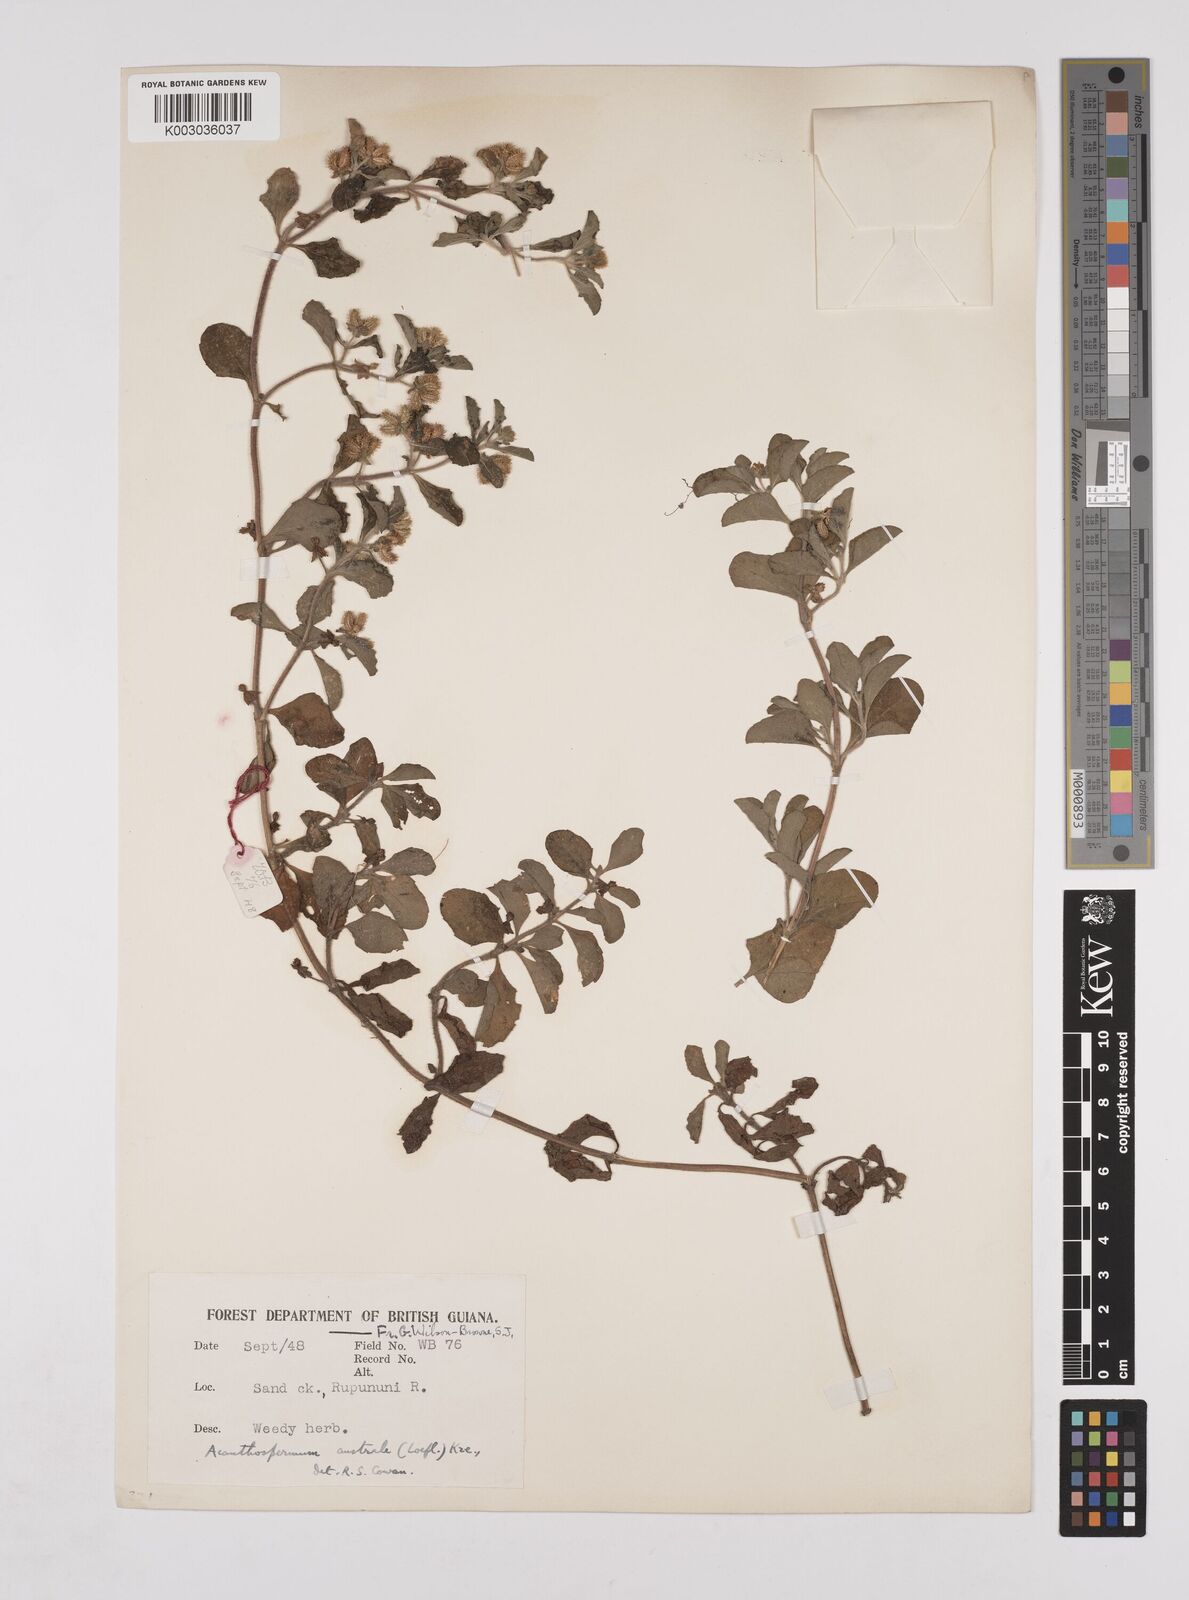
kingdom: Plantae
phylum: Tracheophyta
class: Magnoliopsida
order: Asterales
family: Asteraceae
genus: Acanthospermum
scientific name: Acanthospermum australe
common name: Paraguayan starbur
